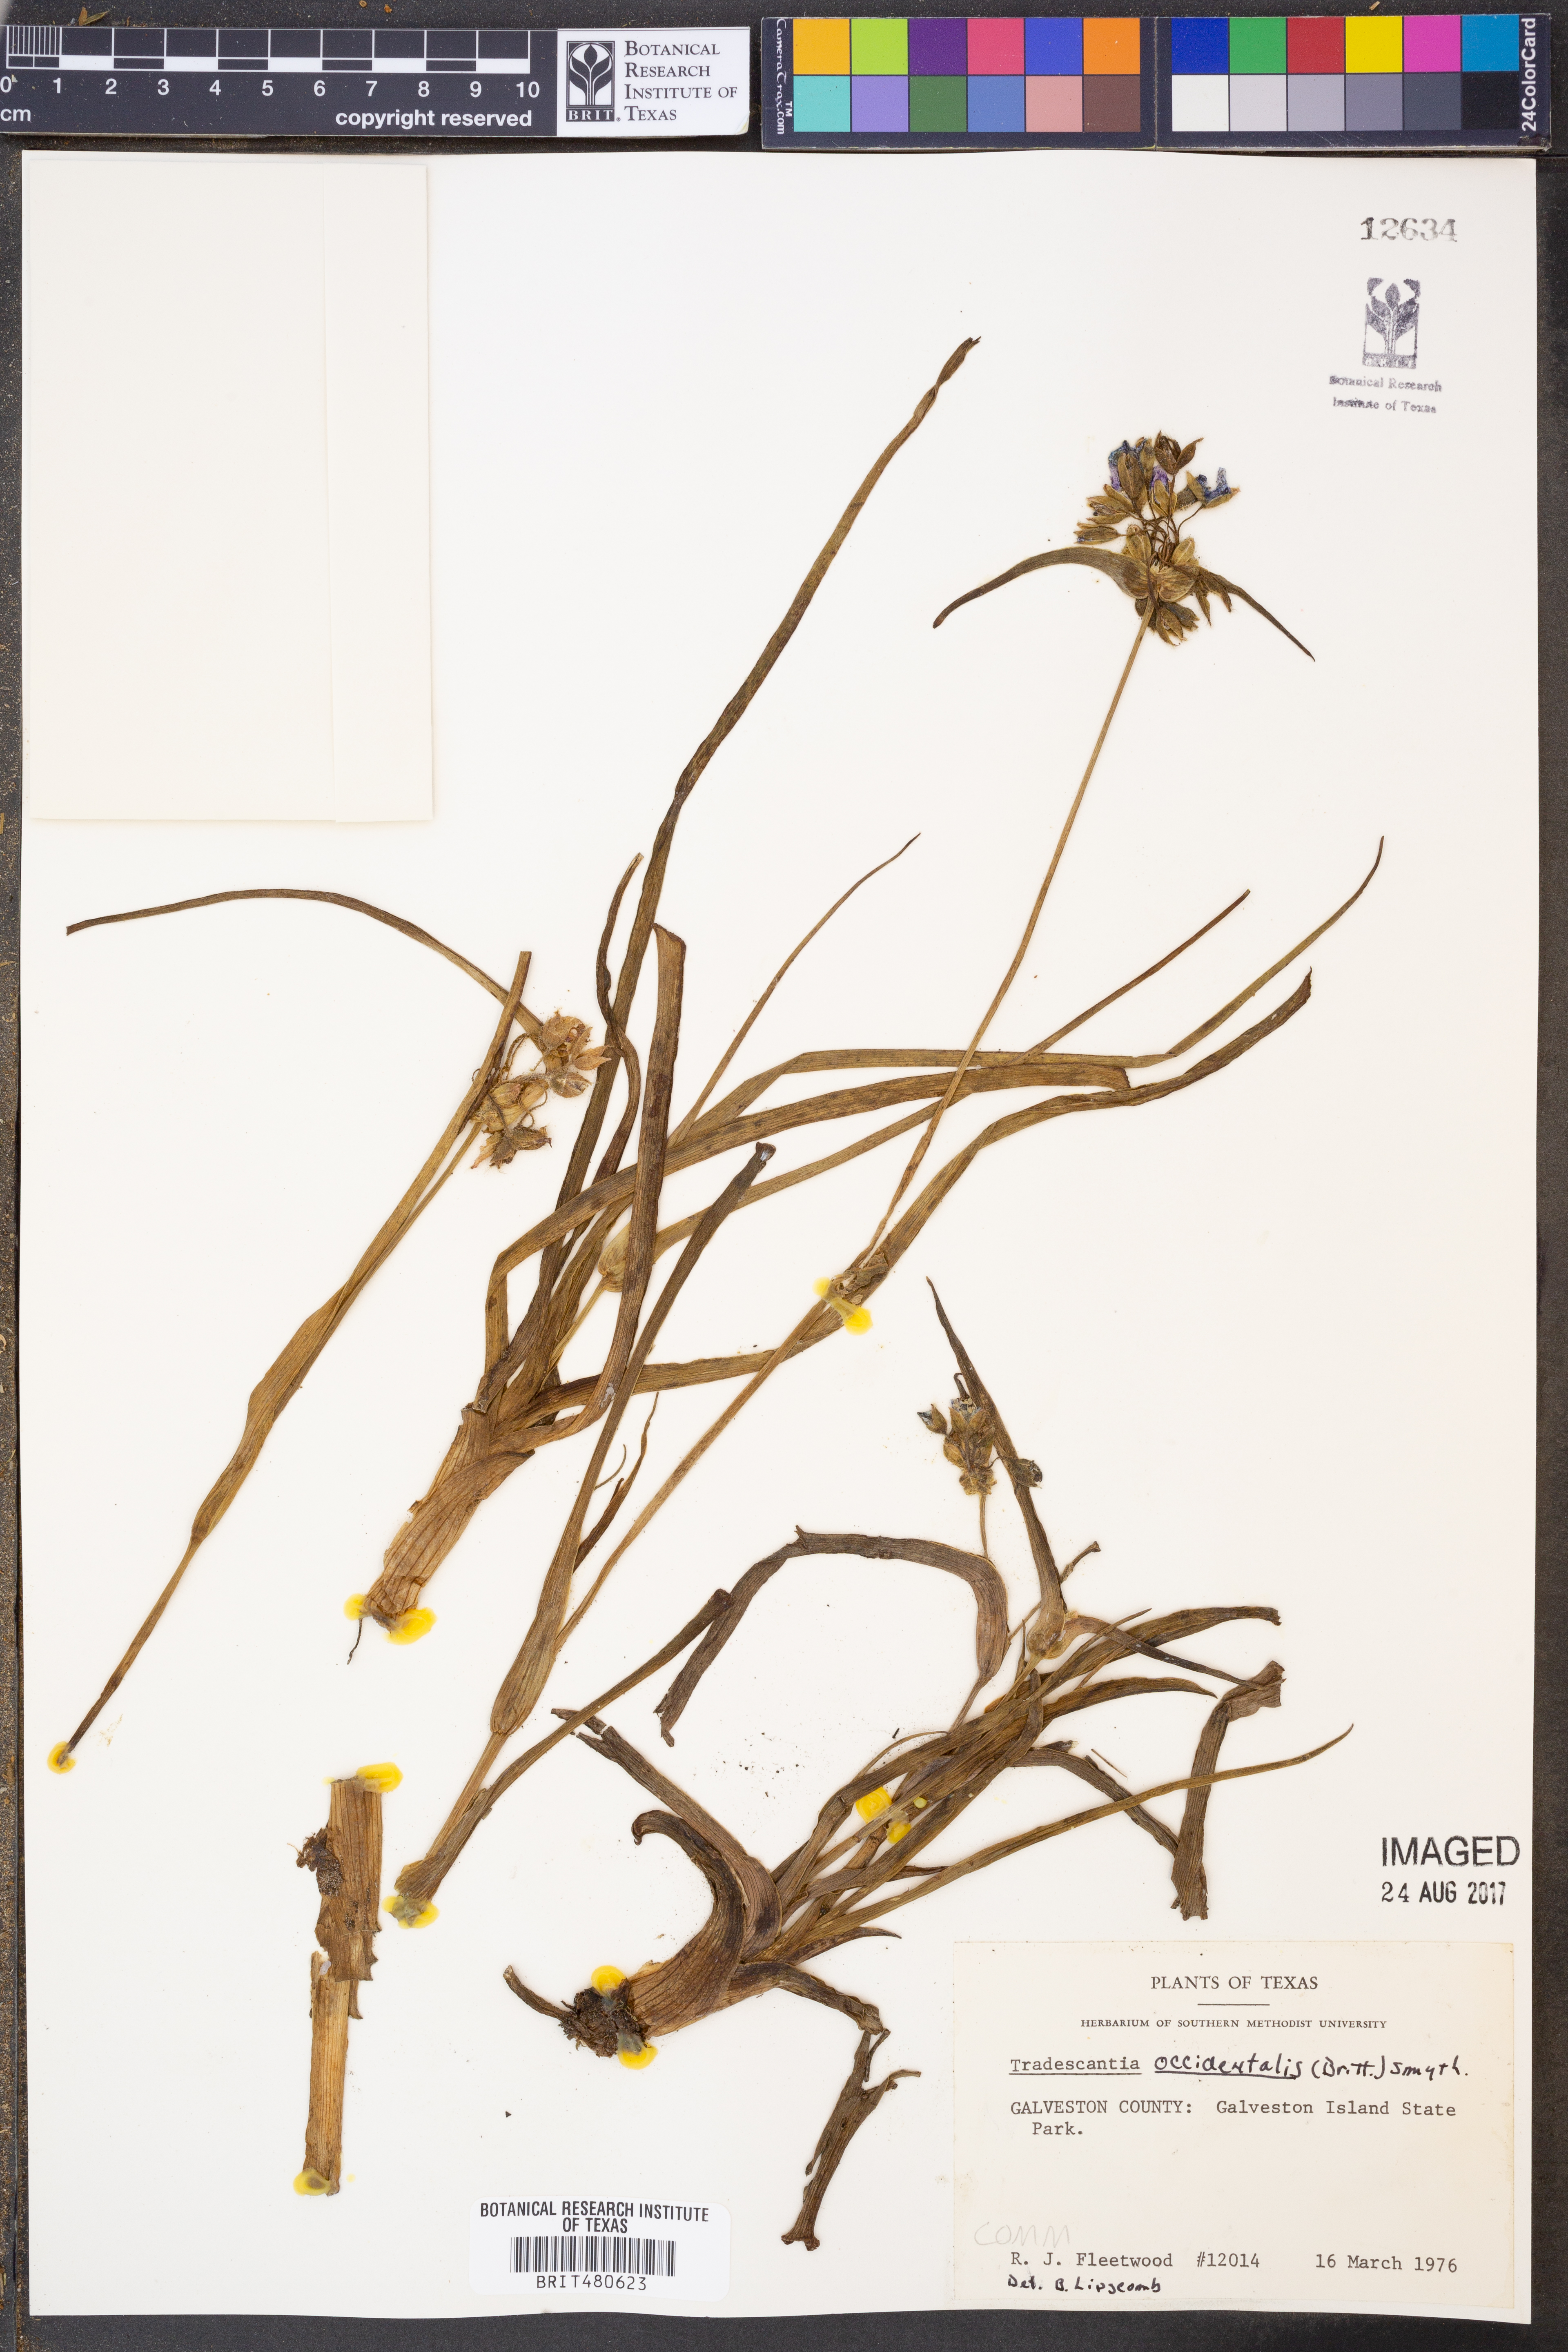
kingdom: Plantae
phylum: Tracheophyta
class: Liliopsida
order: Commelinales
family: Commelinaceae
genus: Tradescantia
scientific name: Tradescantia occidentalis
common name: Prairie spiderwort
